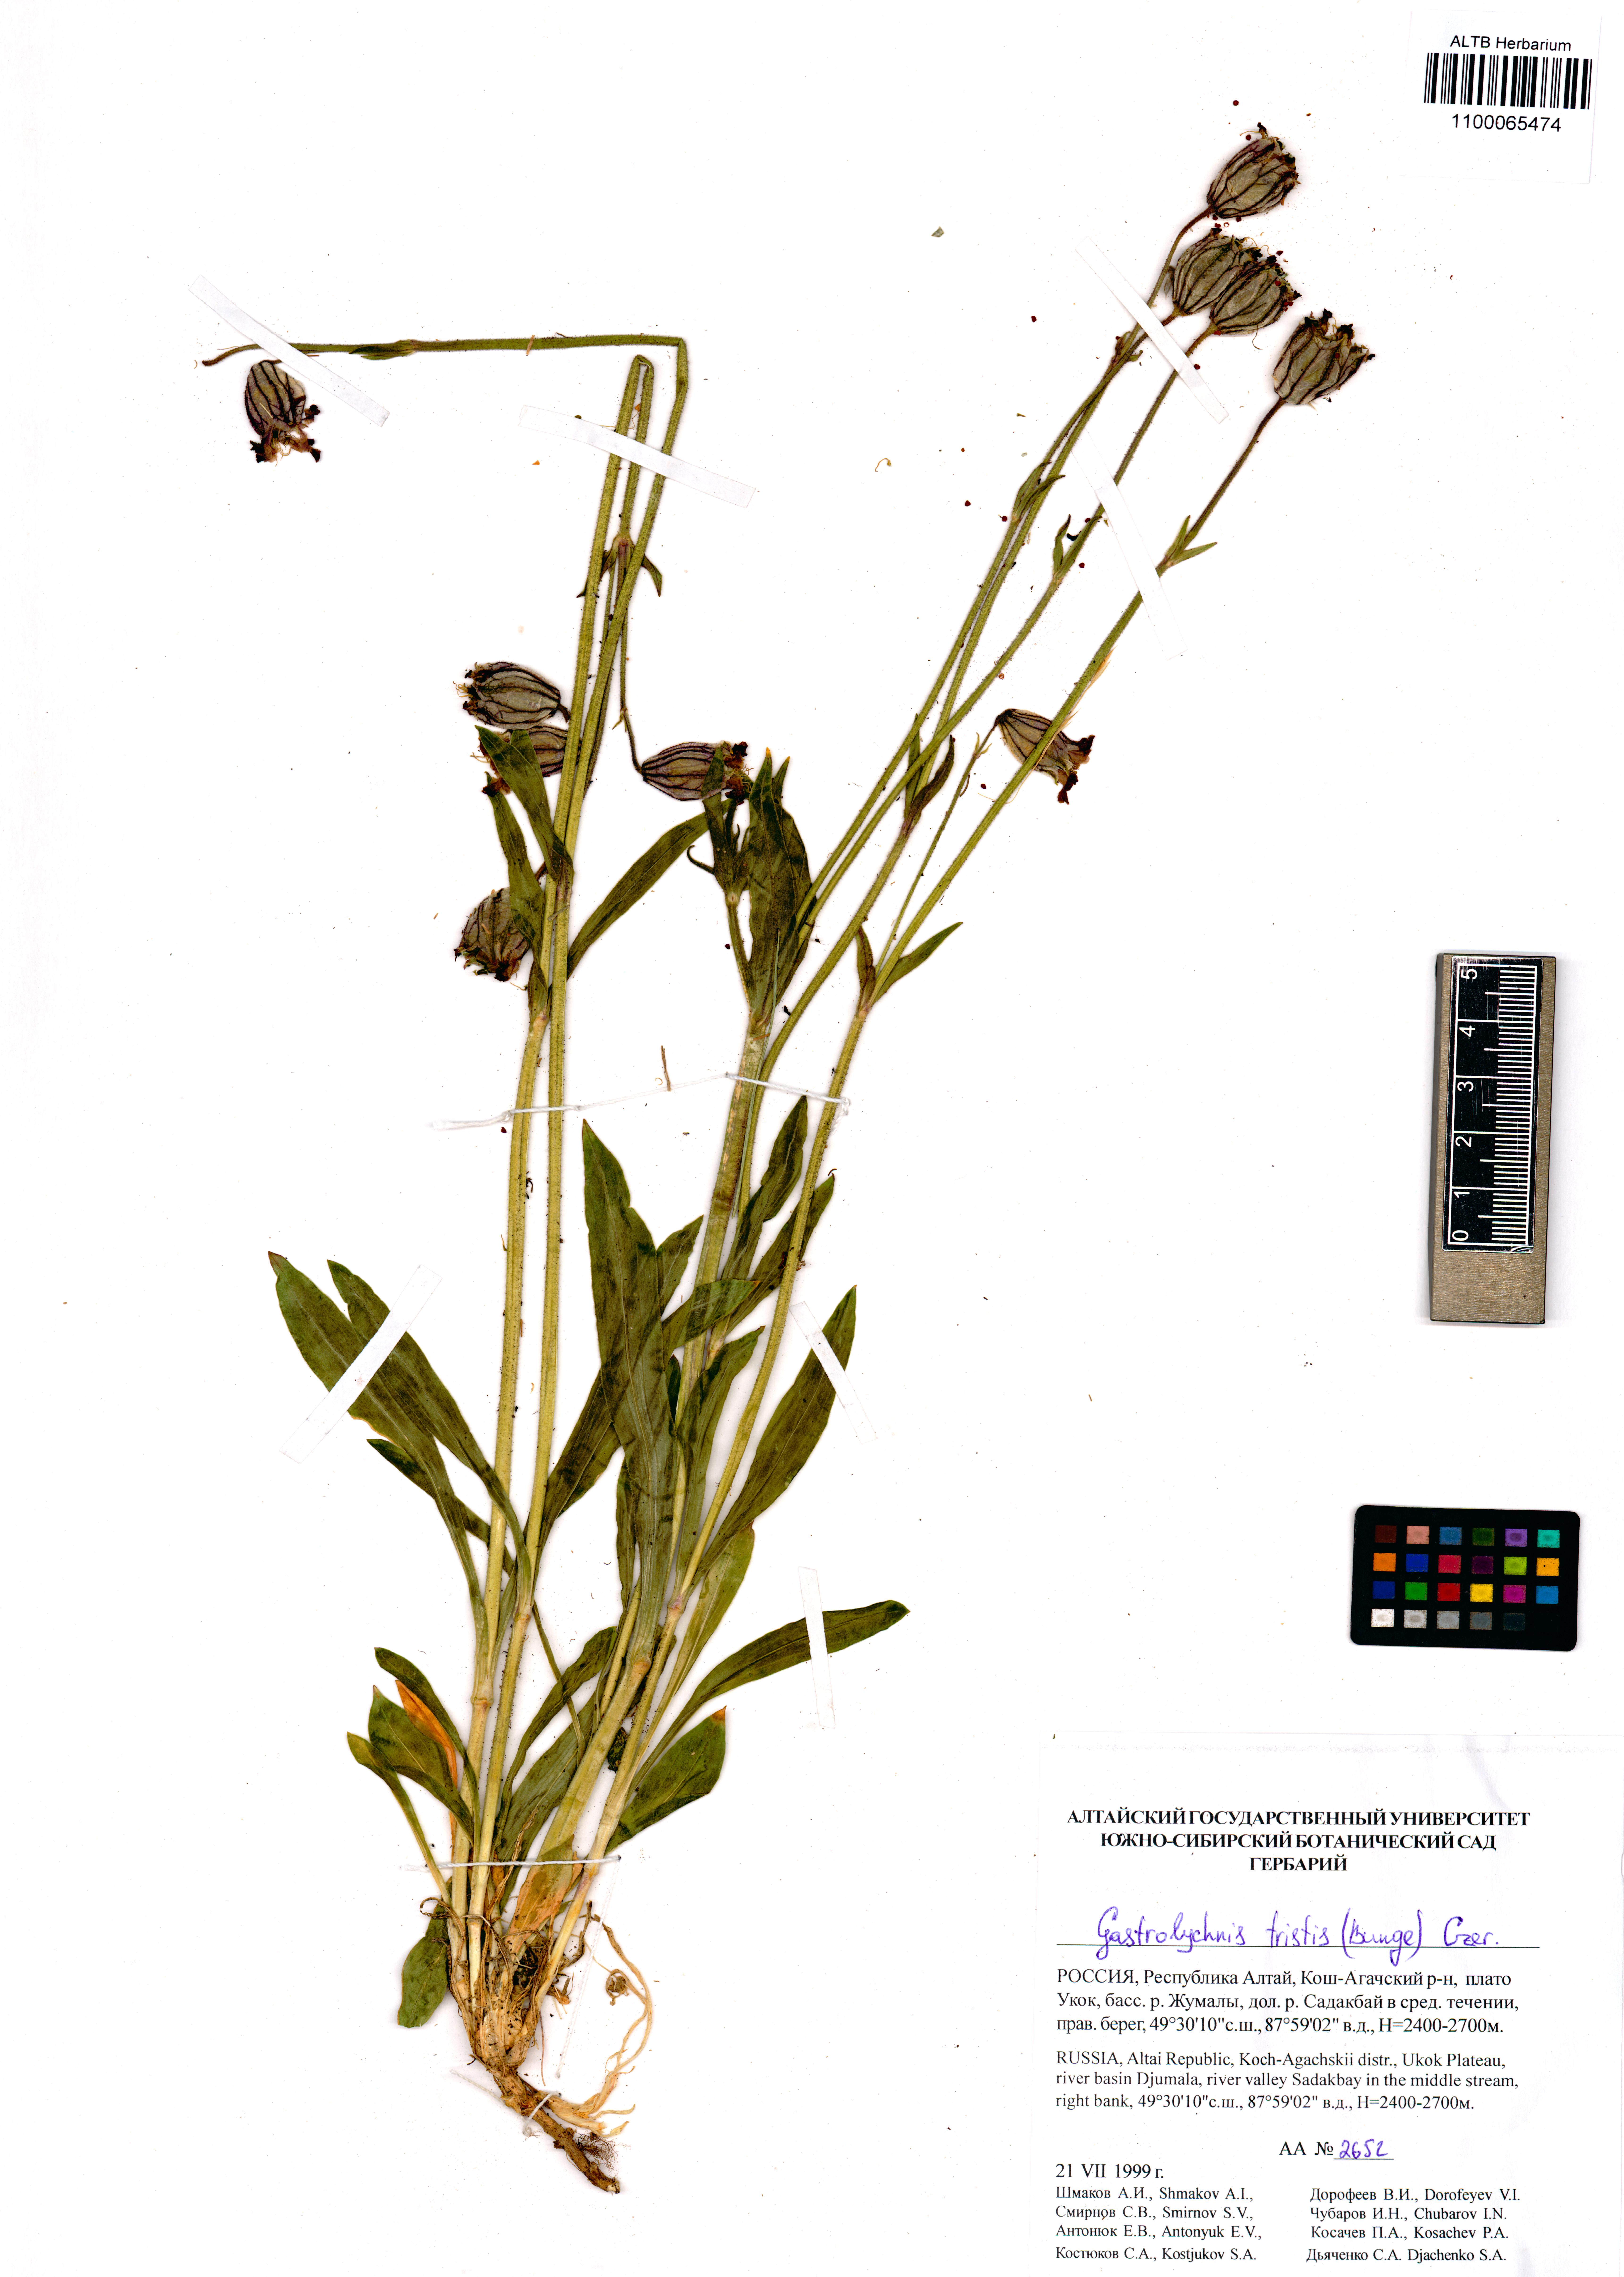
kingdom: Plantae
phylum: Tracheophyta
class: Magnoliopsida
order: Caryophyllales
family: Caryophyllaceae
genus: Silene
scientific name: Silene bungei
